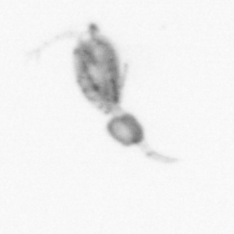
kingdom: Animalia
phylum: Arthropoda
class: Copepoda
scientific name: Copepoda
